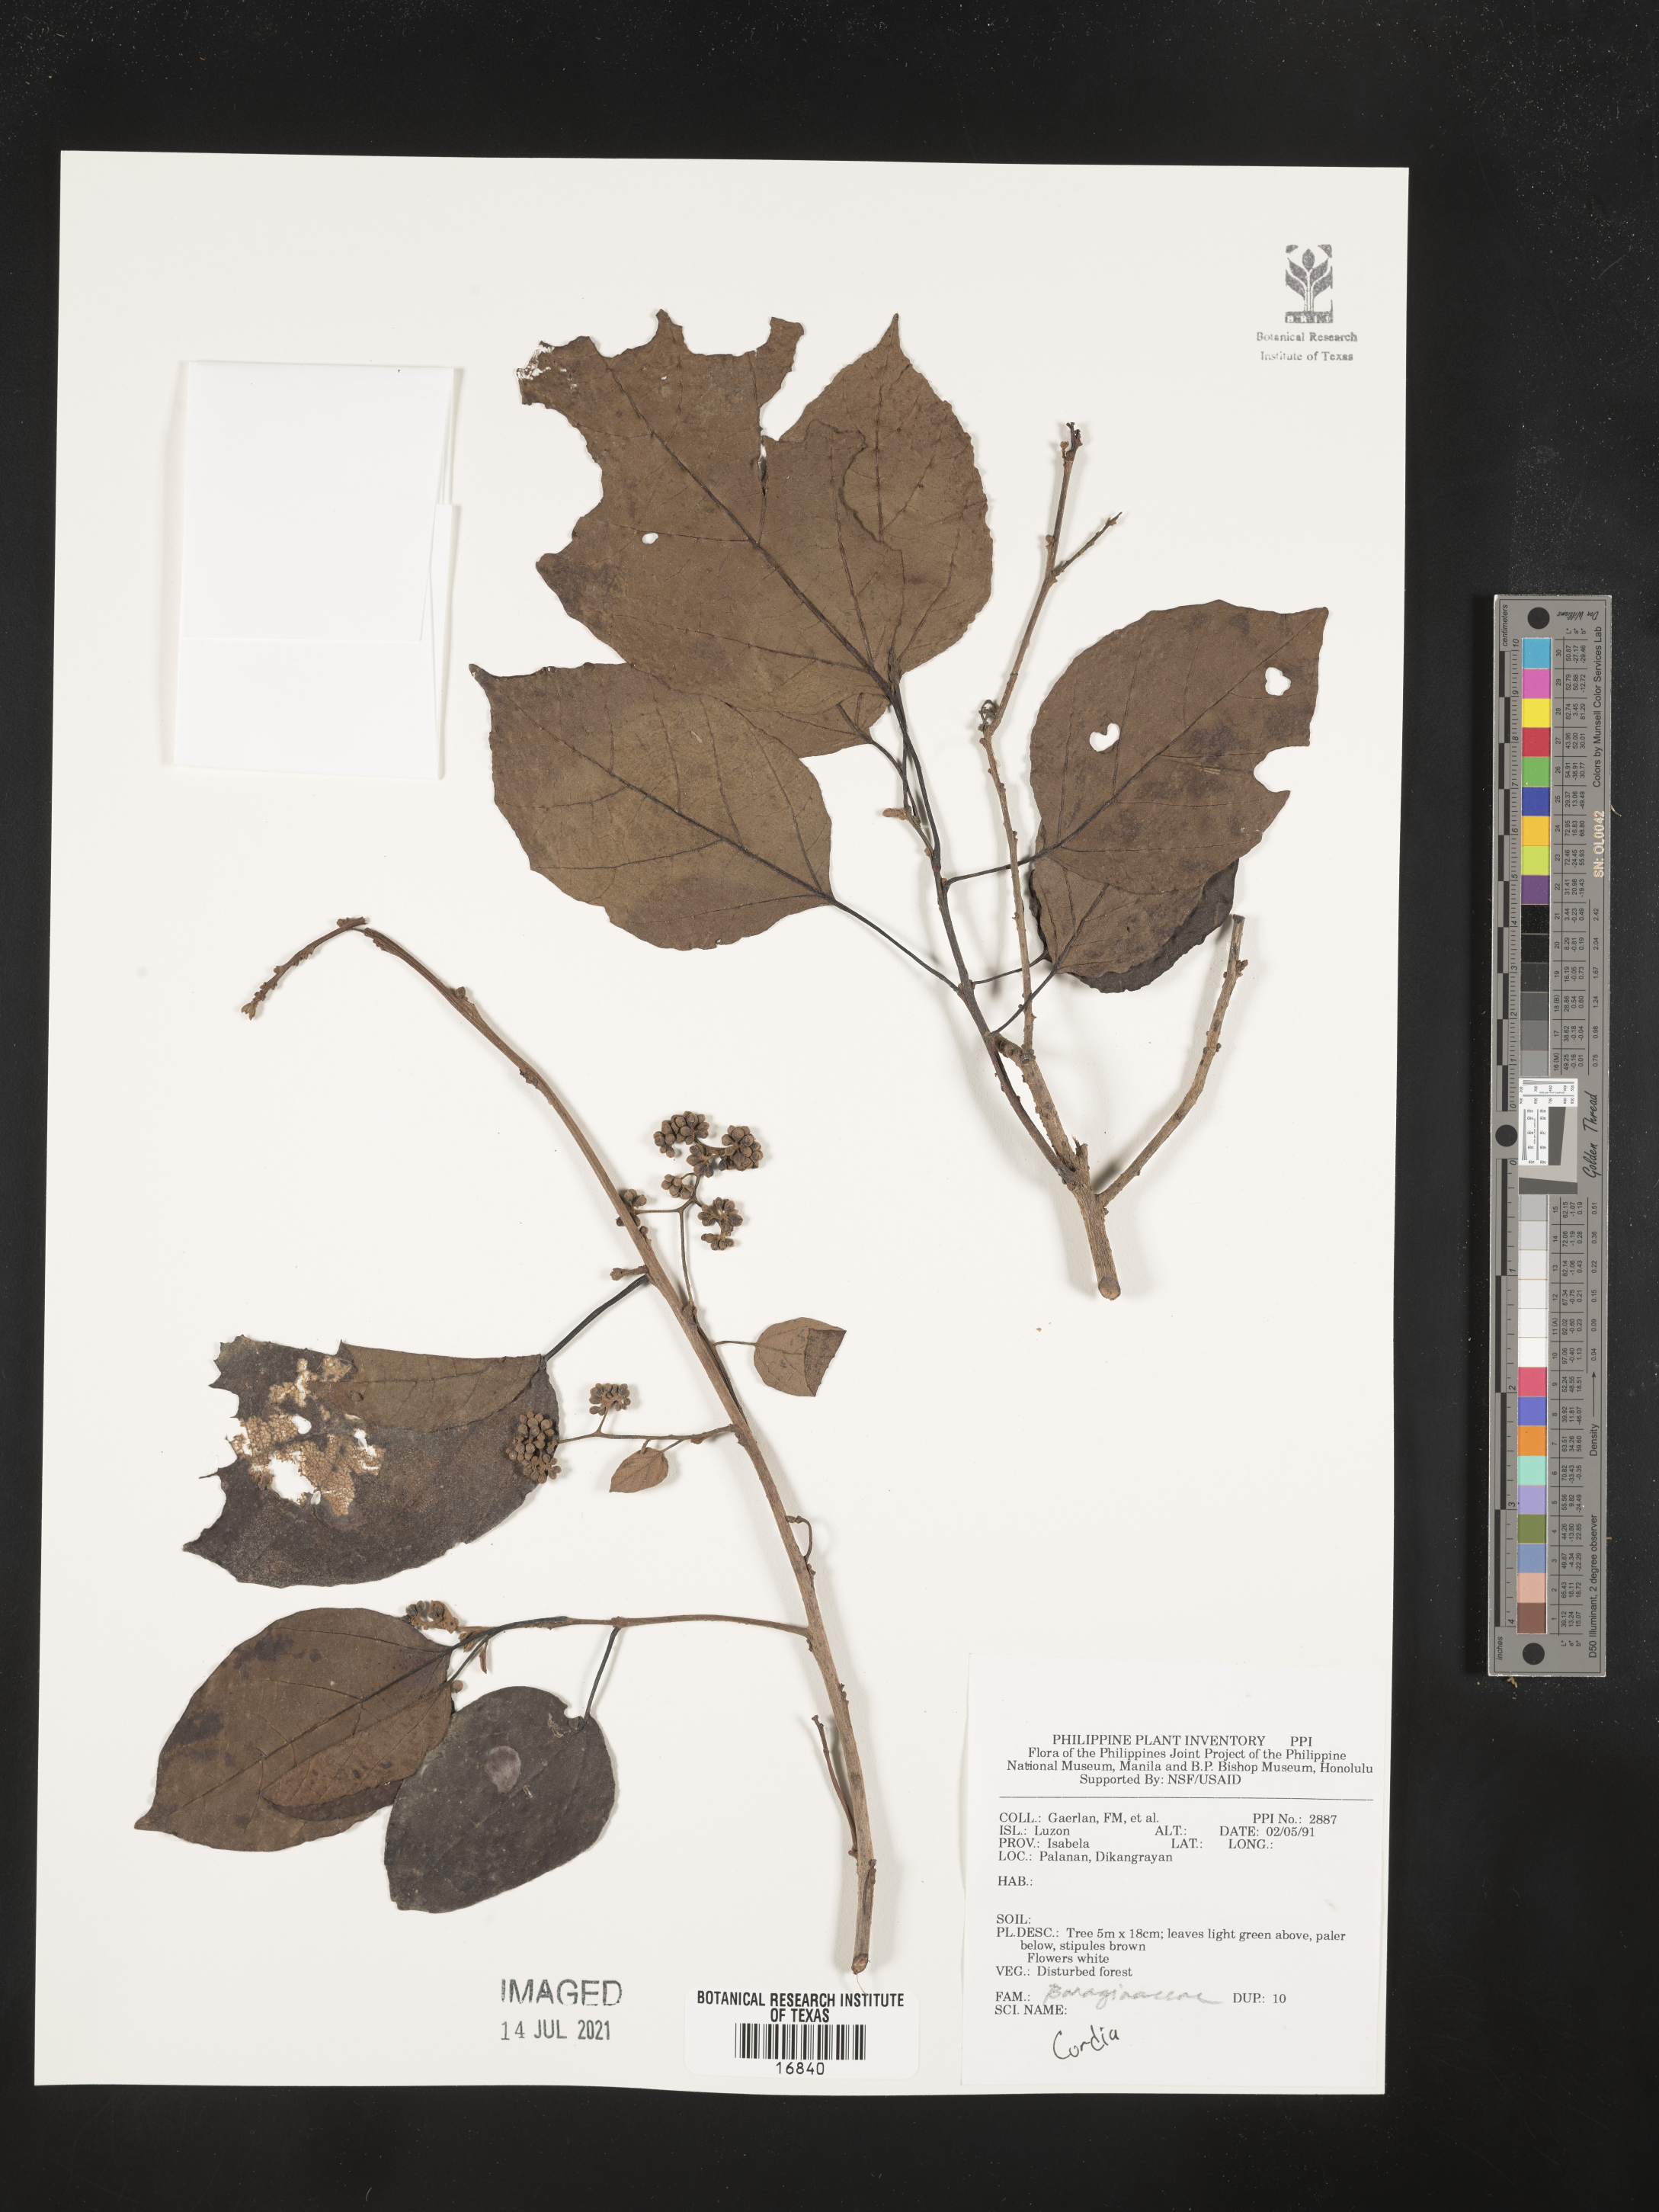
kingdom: Plantae
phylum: Tracheophyta
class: Magnoliopsida
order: Boraginales
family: Cordiaceae
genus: Cordia
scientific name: Cordia
